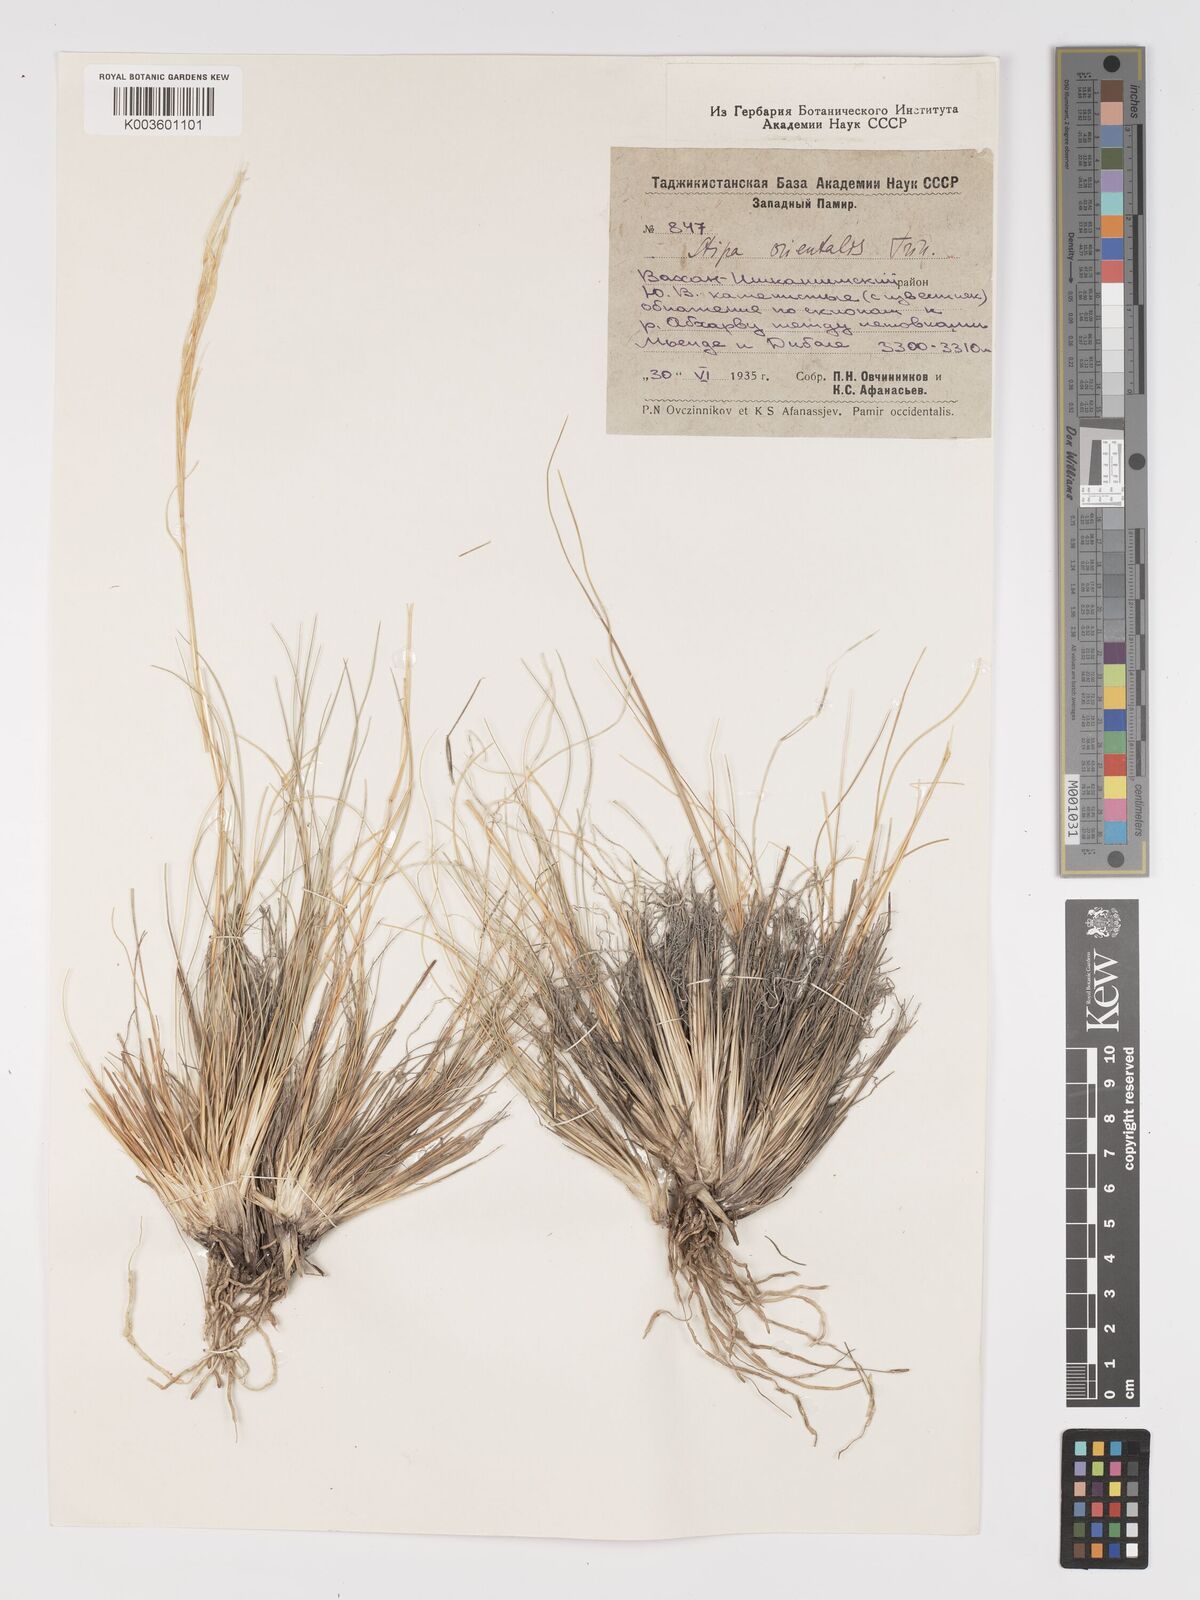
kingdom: Plantae
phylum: Tracheophyta
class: Liliopsida
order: Poales
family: Poaceae
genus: Stipa
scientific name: Stipa orientalis
